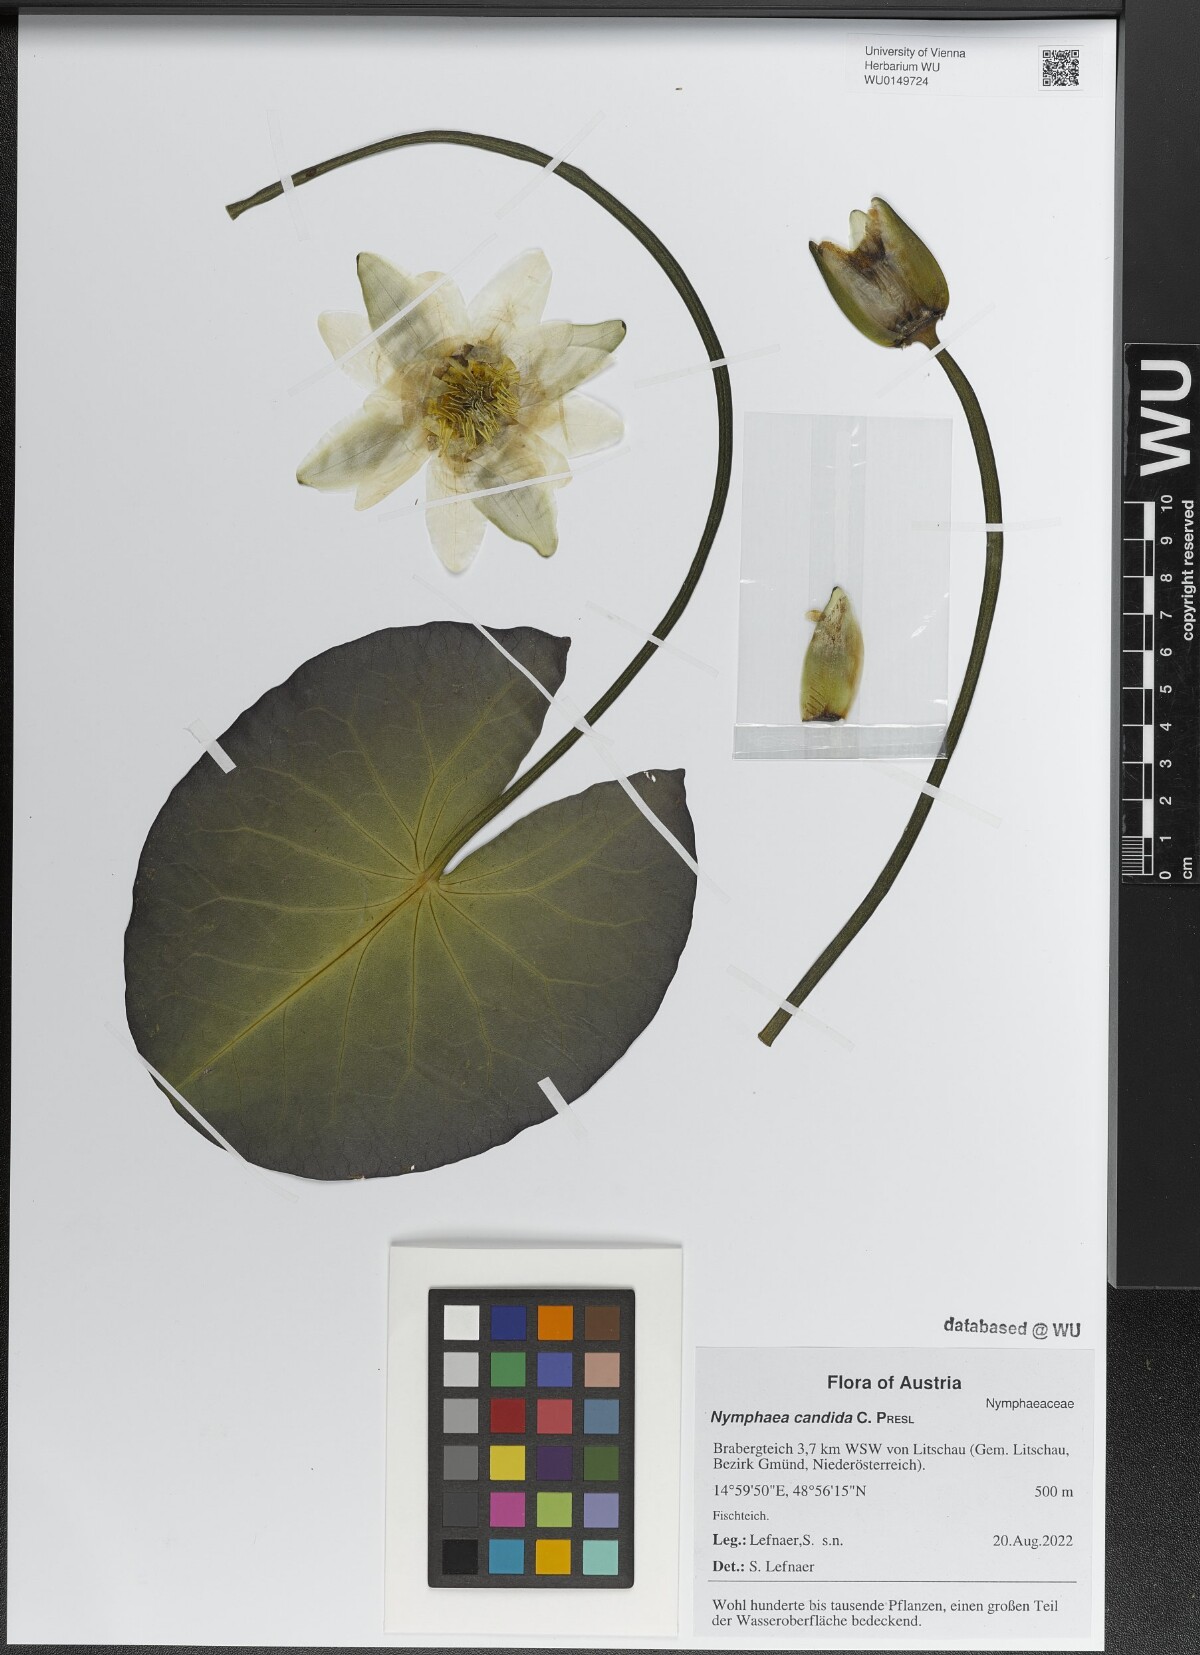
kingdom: Plantae
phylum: Tracheophyta
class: Magnoliopsida
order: Nymphaeales
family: Nymphaeaceae
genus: Nymphaea
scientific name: Nymphaea candida
